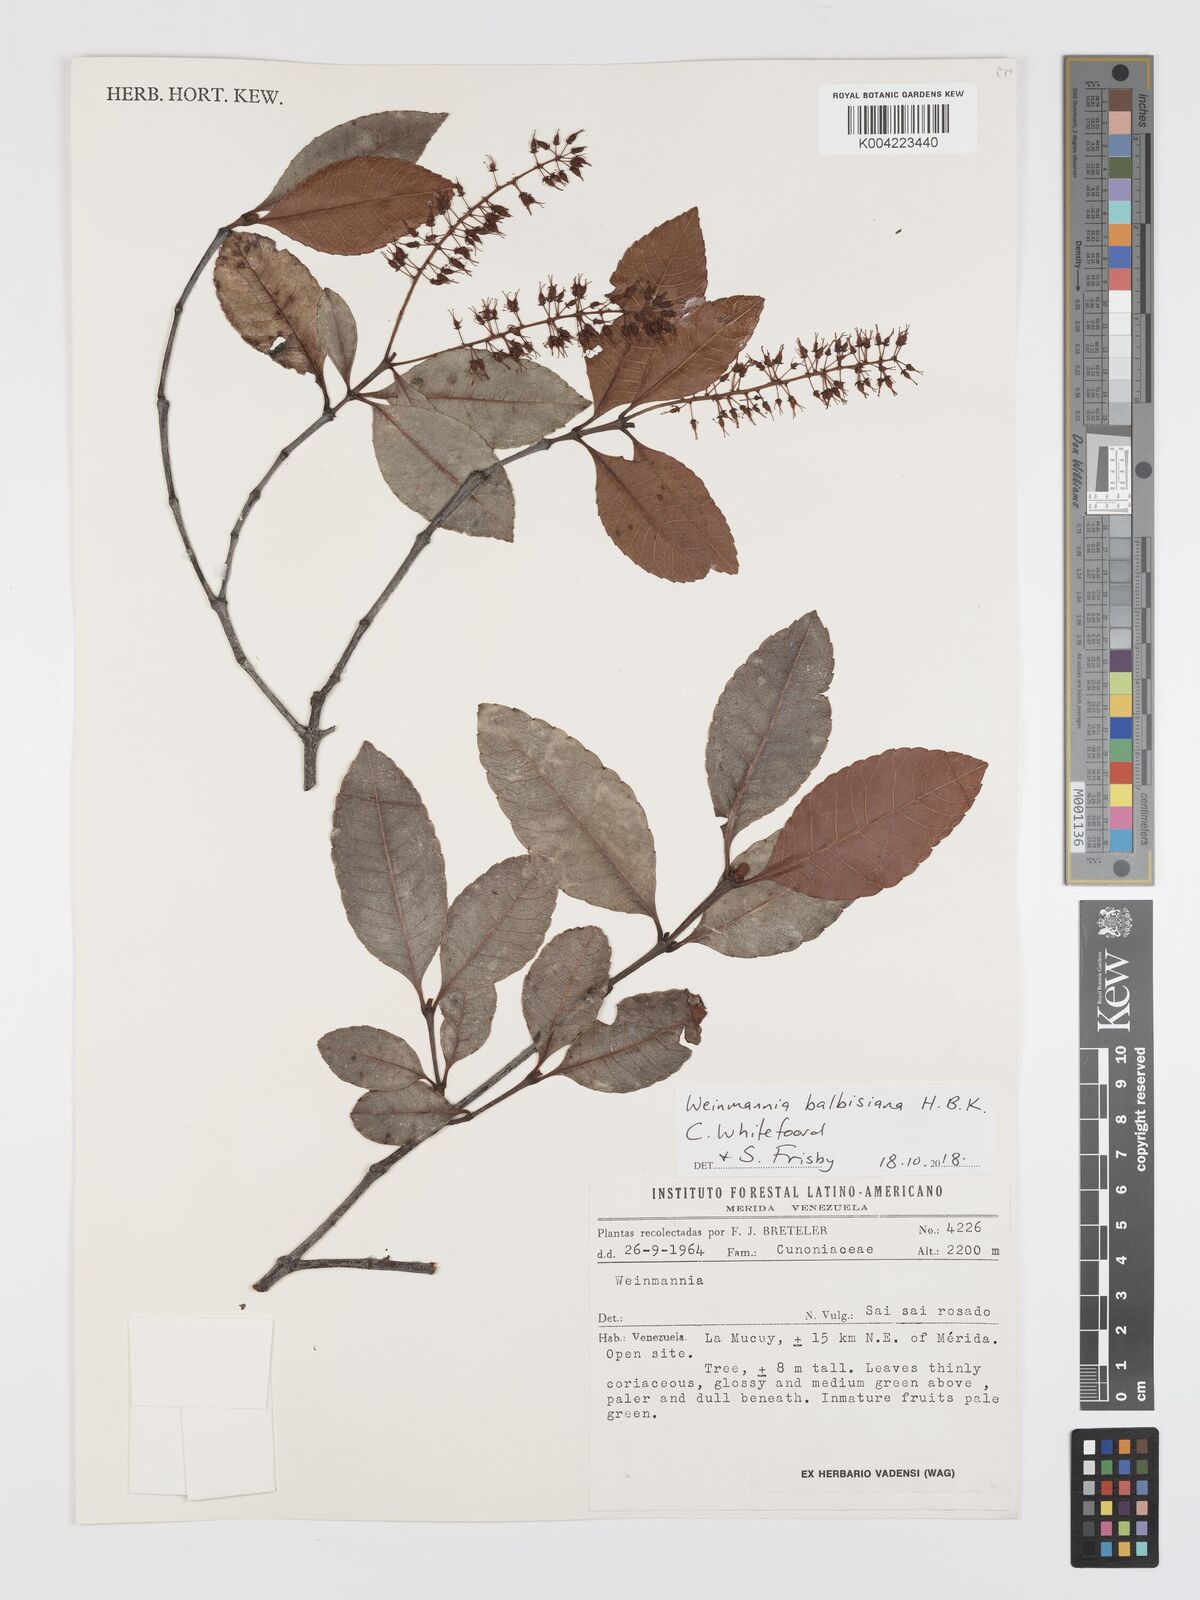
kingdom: Plantae
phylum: Tracheophyta
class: Magnoliopsida
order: Oxalidales
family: Cunoniaceae
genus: Weinmannia
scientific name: Weinmannia balbisana
